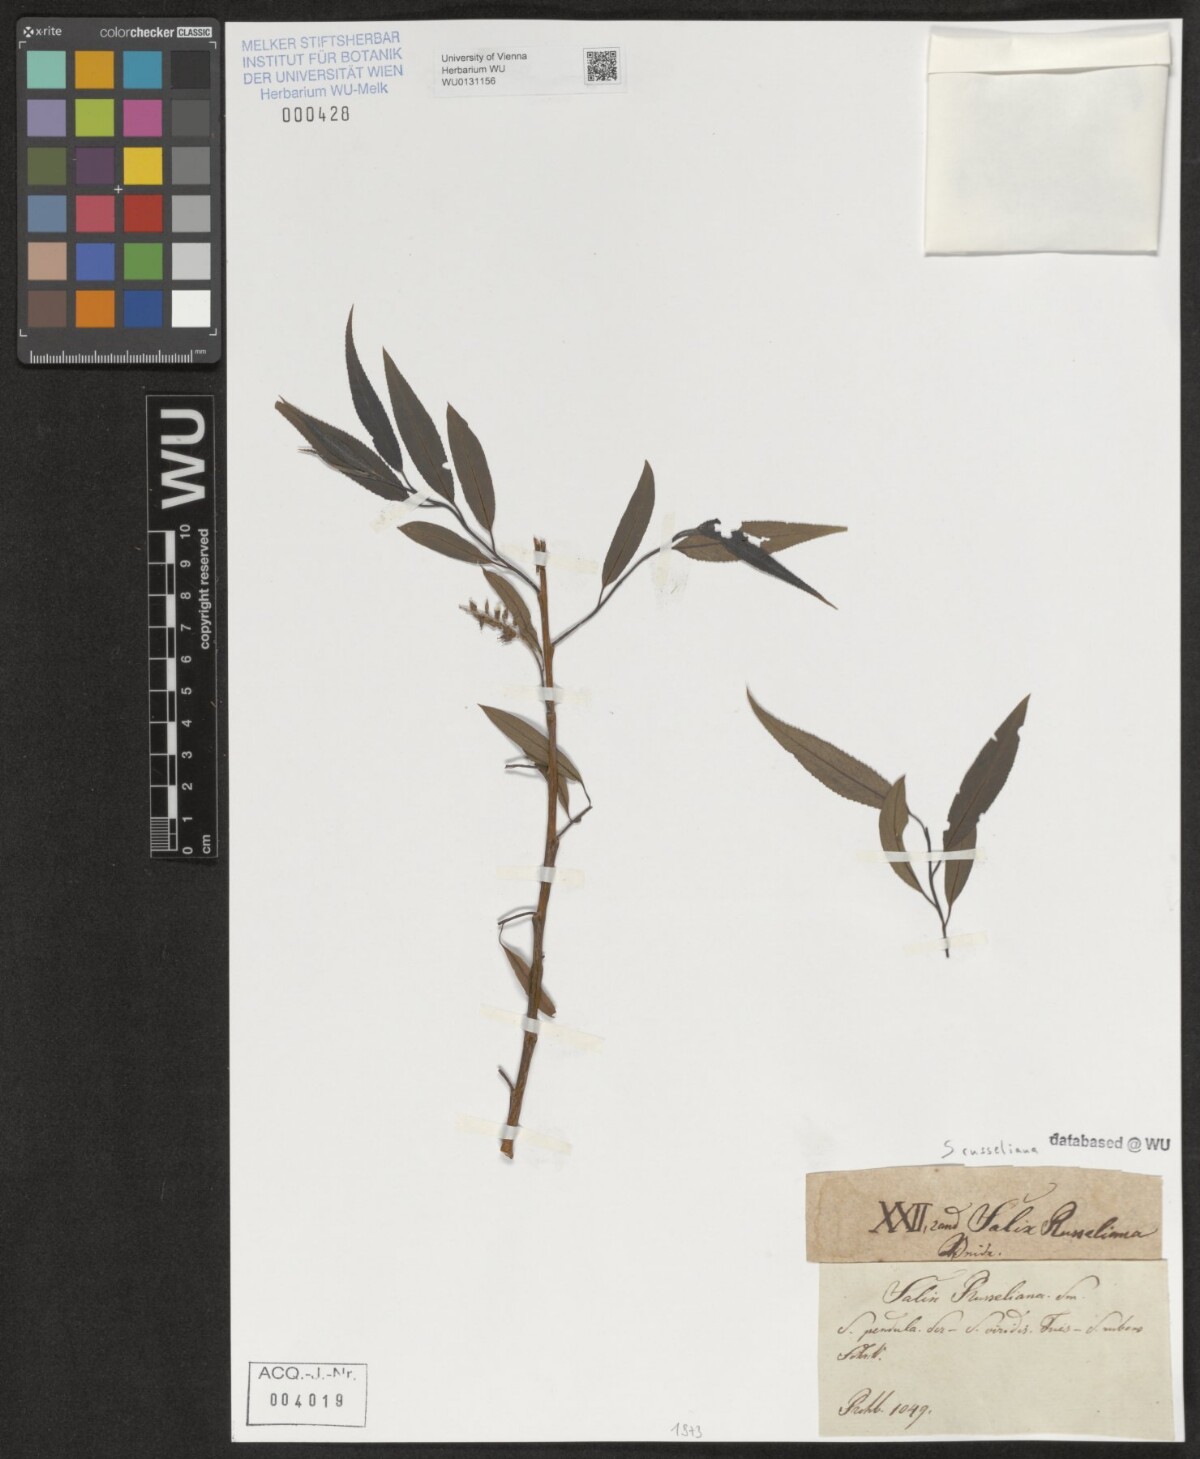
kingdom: Plantae
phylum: Tracheophyta
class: Magnoliopsida
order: Malpighiales
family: Salicaceae
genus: Salix
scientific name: Salix rubens
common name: Hybrid crack willow
